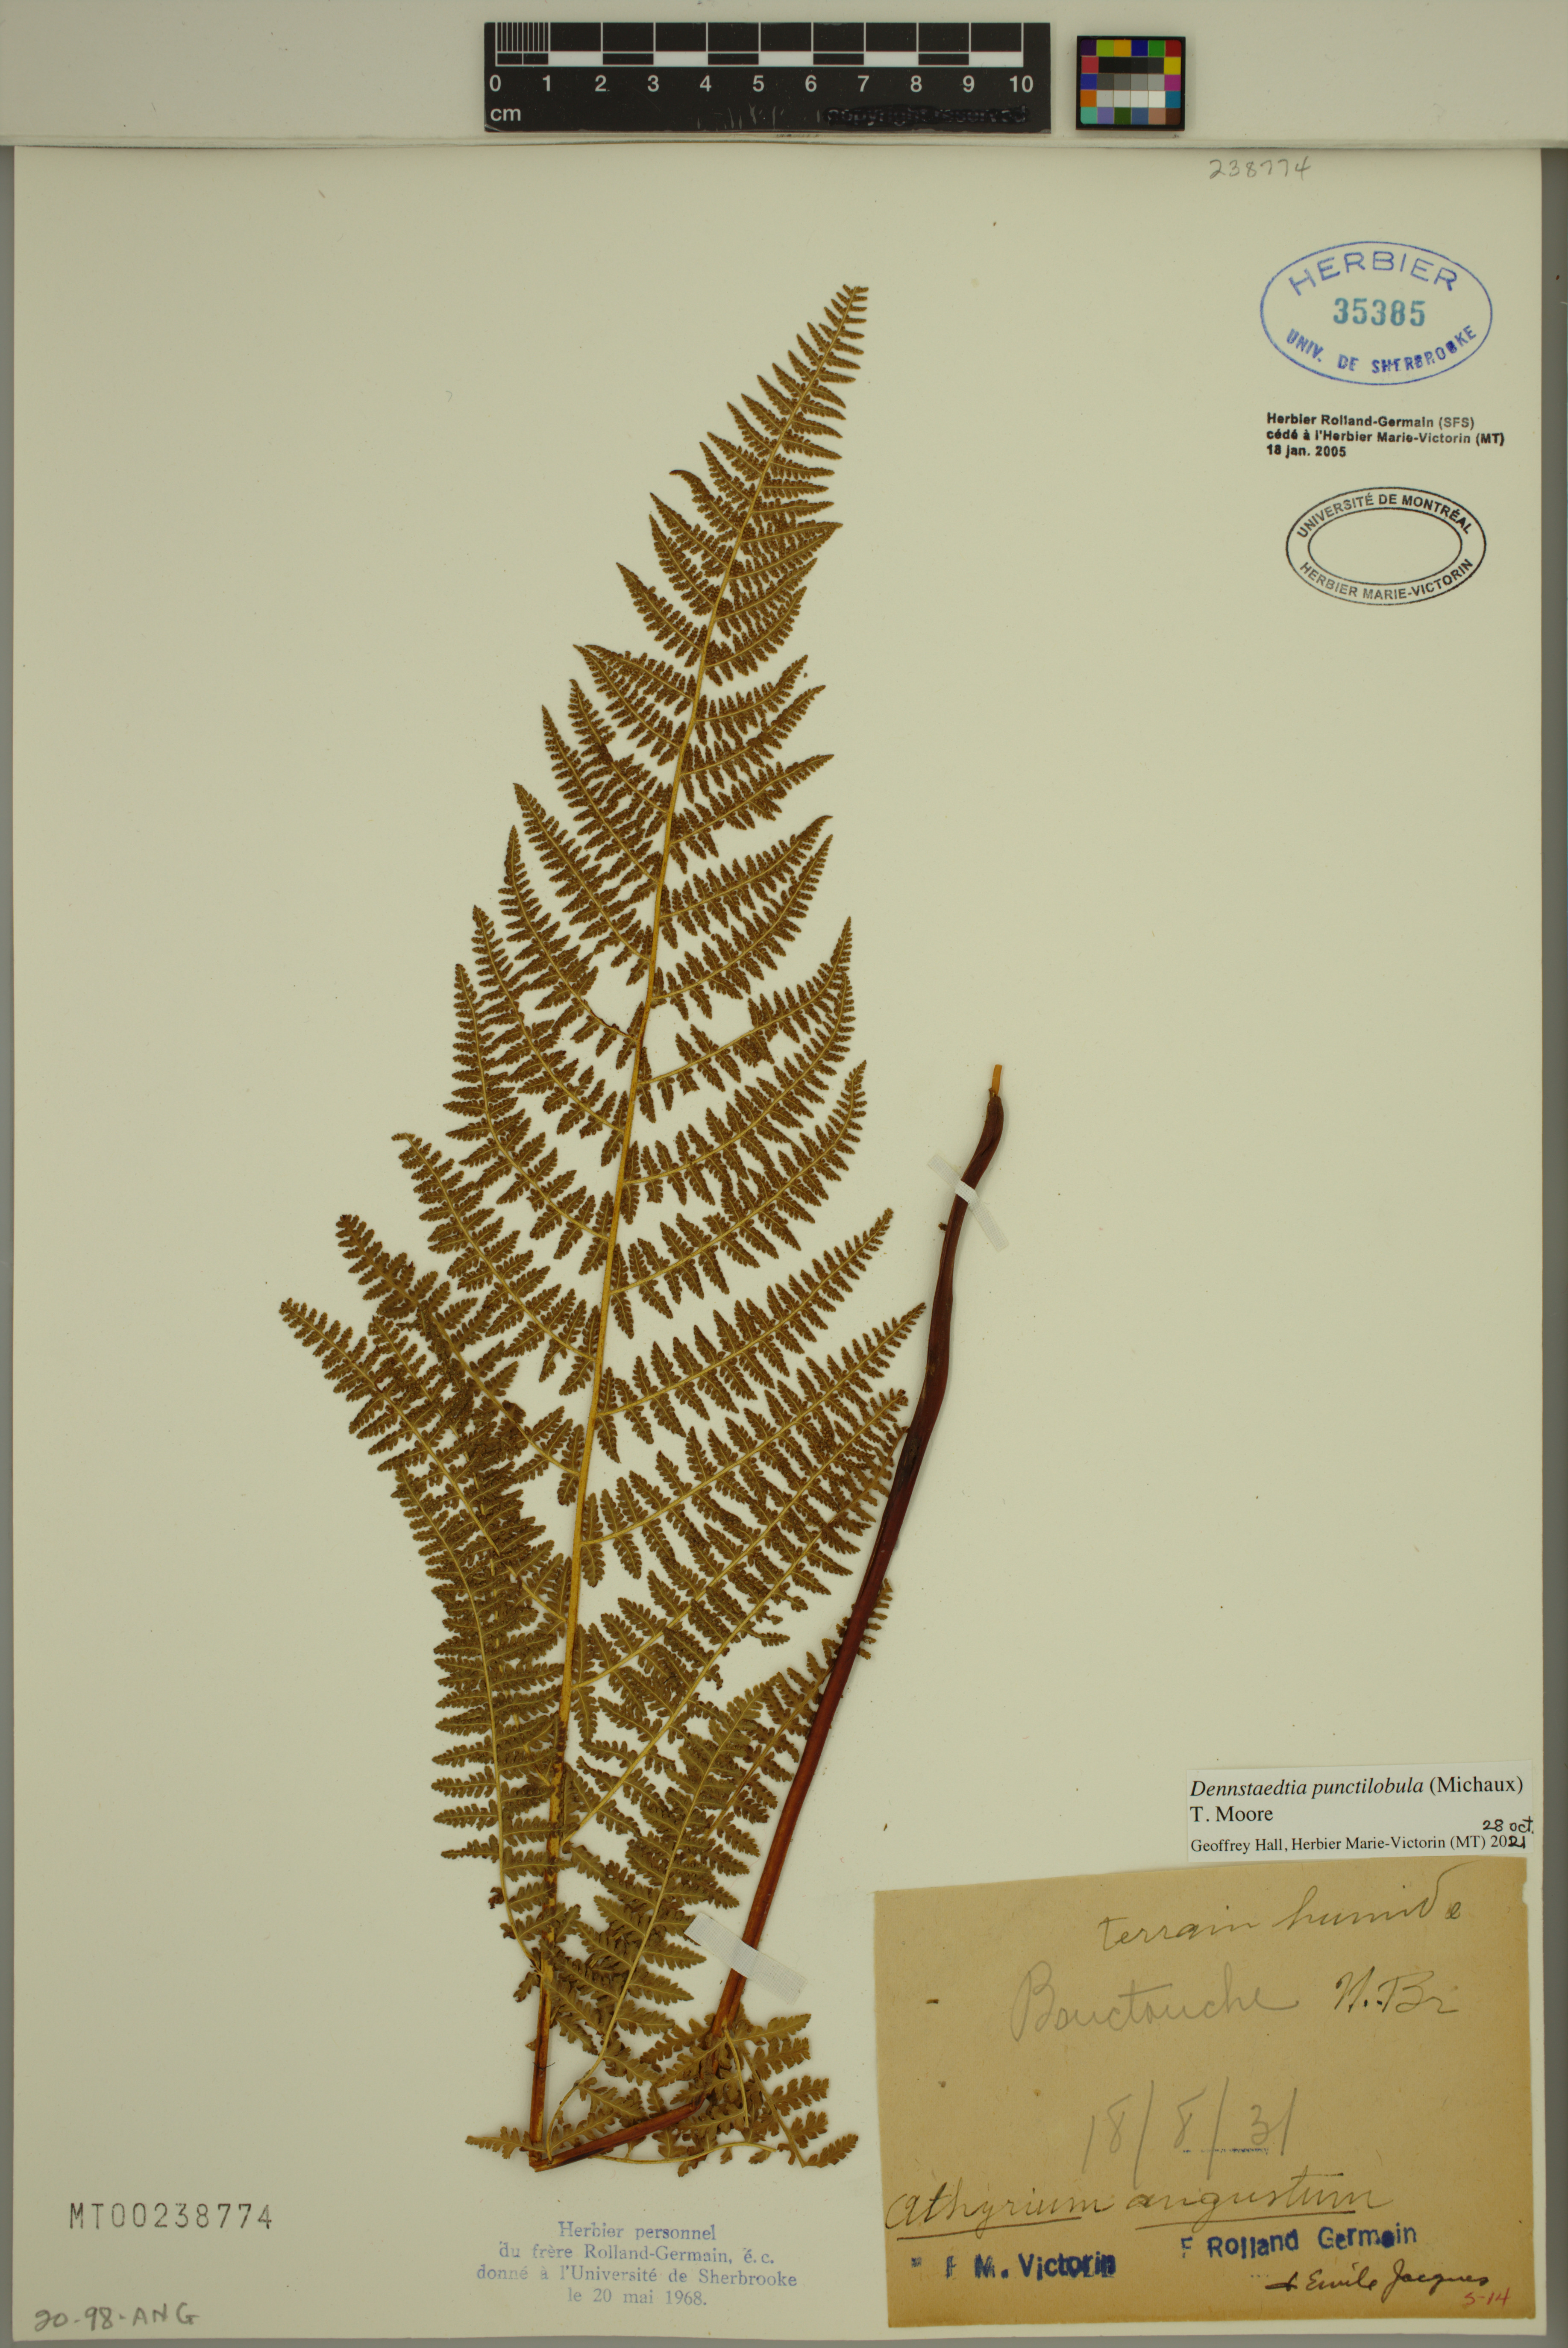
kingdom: Plantae
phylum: Tracheophyta
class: Polypodiopsida
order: Polypodiales
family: Dennstaedtiaceae
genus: Sitobolium
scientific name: Sitobolium punctilobum
